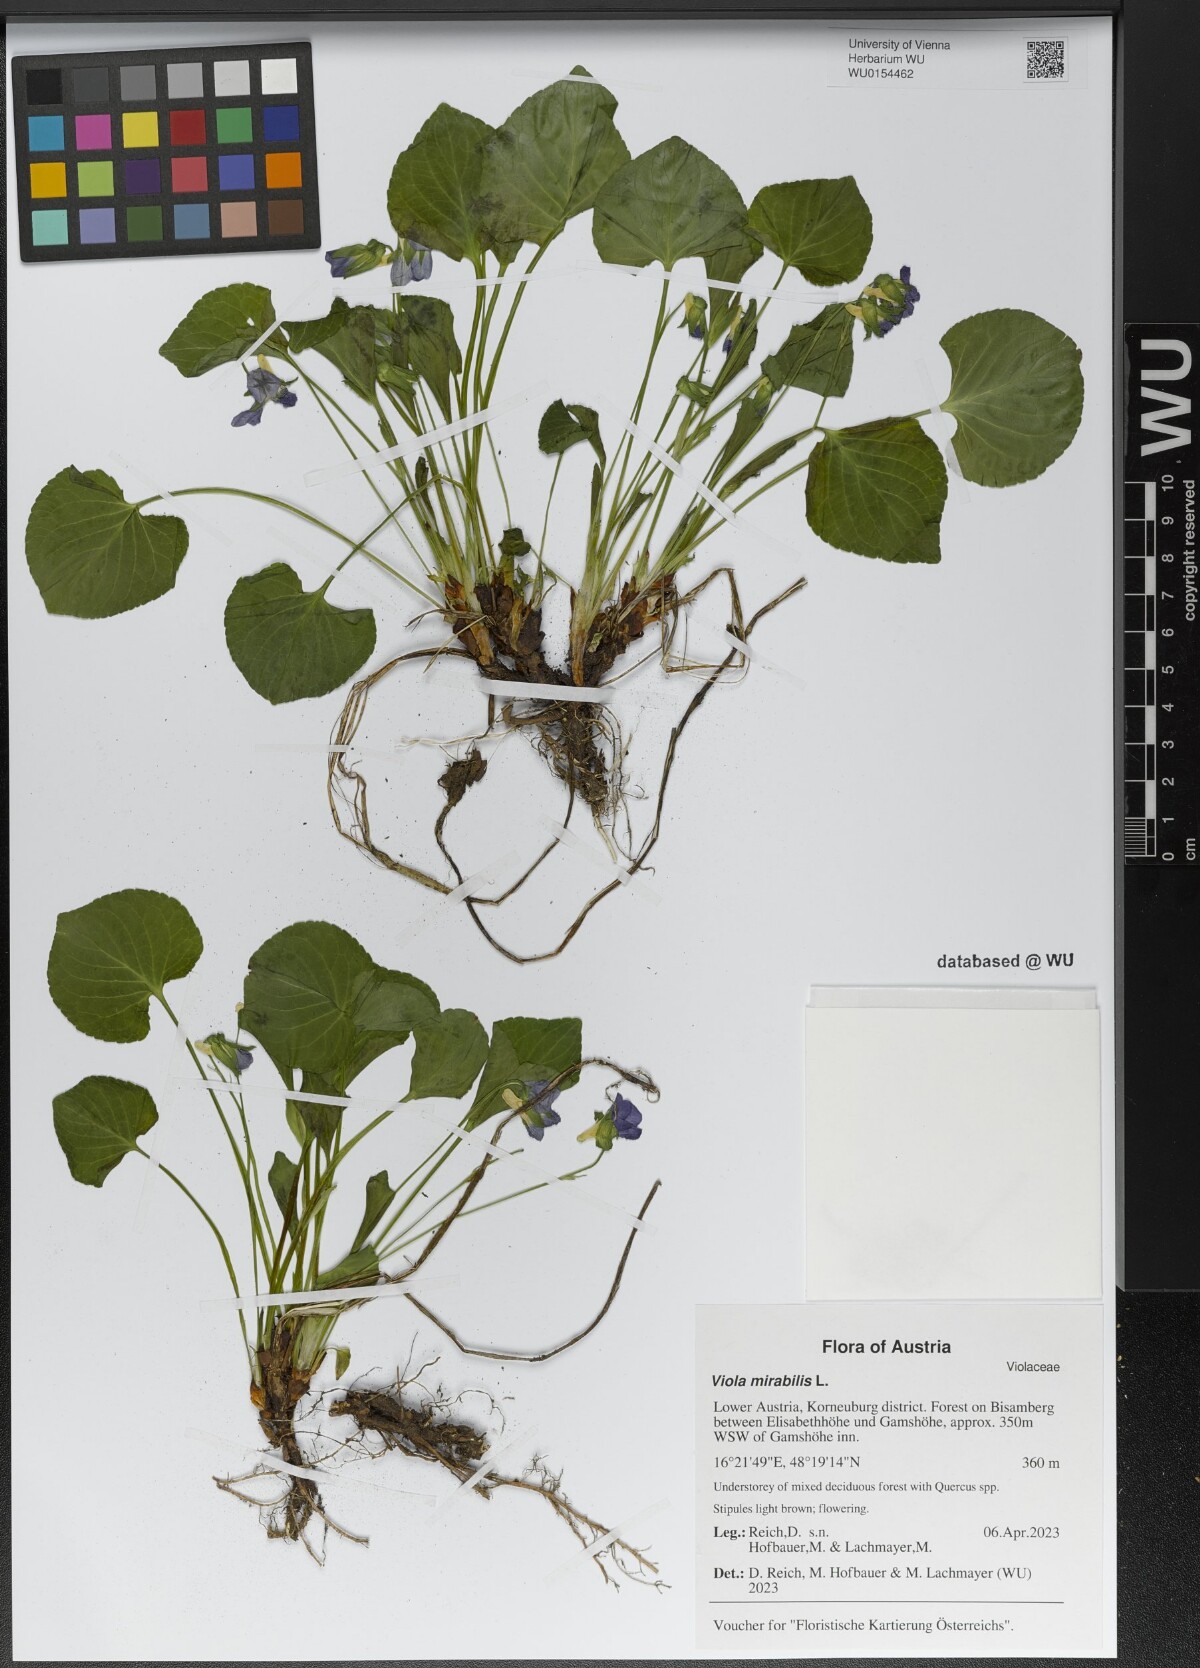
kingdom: Plantae
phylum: Tracheophyta
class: Magnoliopsida
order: Malpighiales
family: Violaceae
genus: Viola
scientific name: Viola mirabilis
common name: Wonder violet
